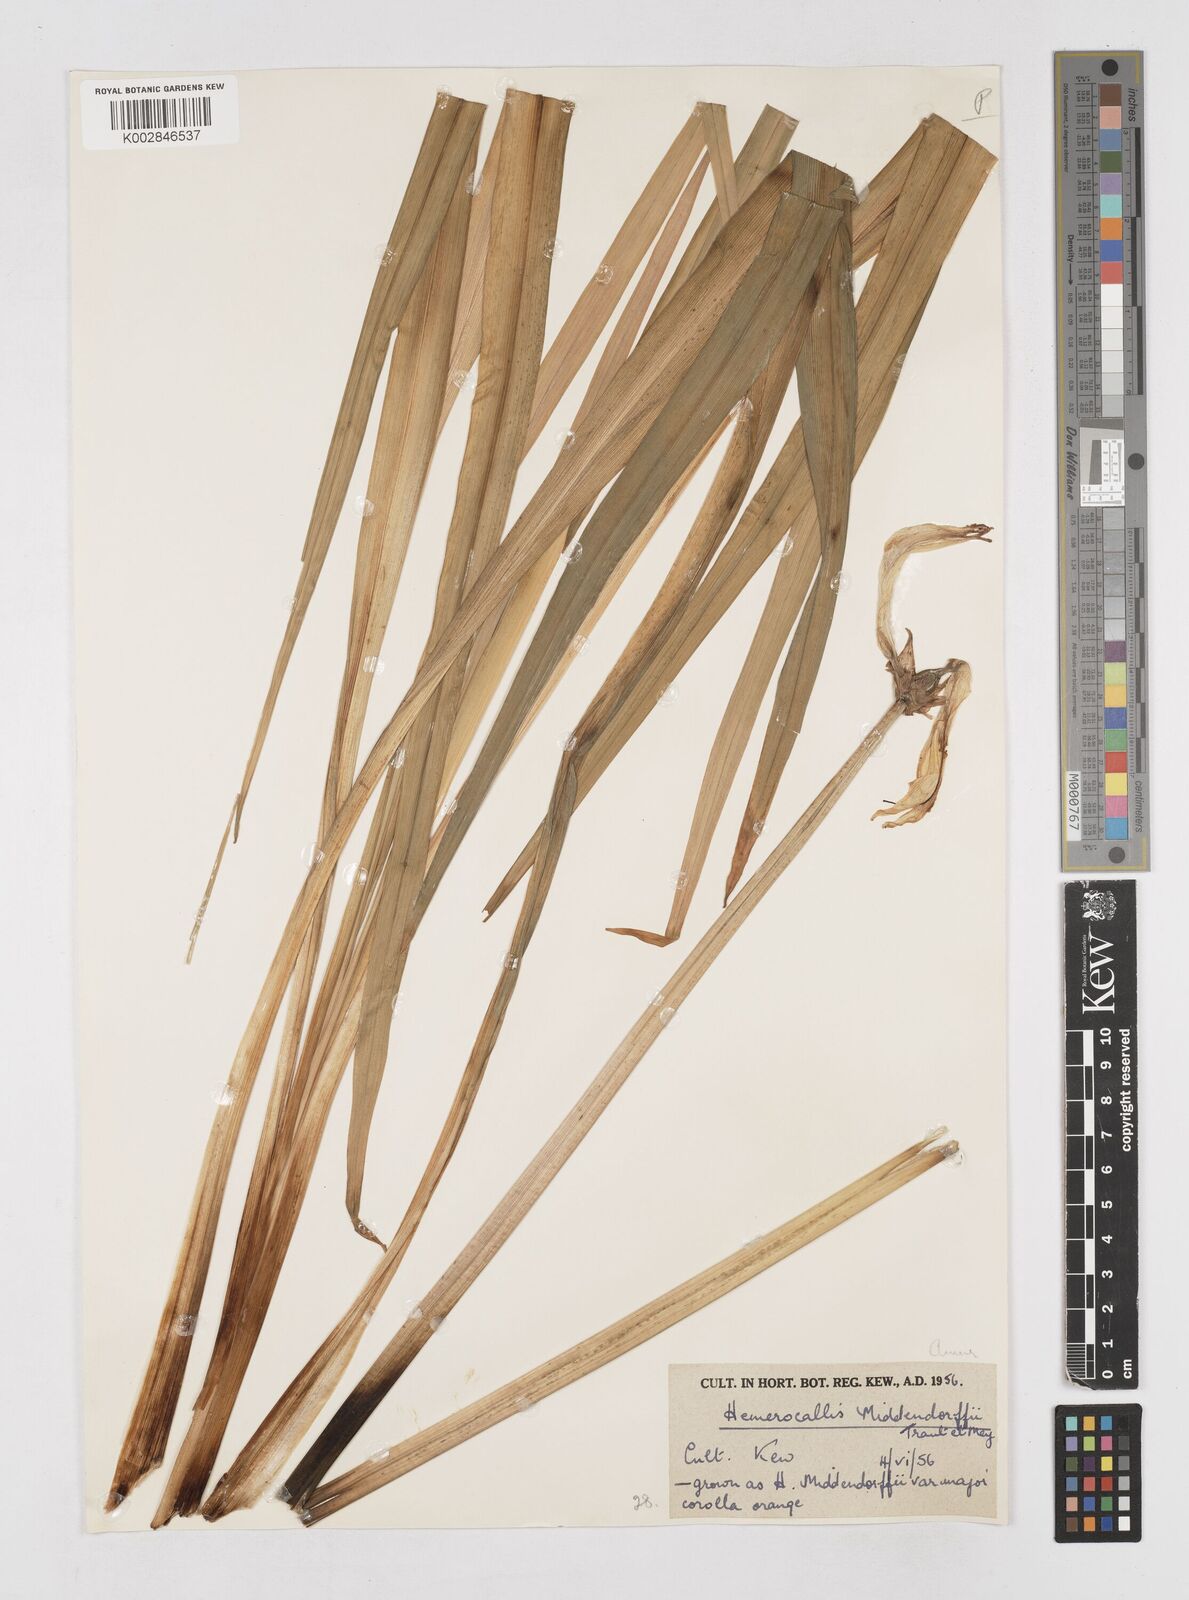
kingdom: Plantae
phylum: Tracheophyta
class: Liliopsida
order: Asparagales
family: Asphodelaceae
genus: Hemerocallis
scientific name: Hemerocallis middendorffii
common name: Amur day-lily
